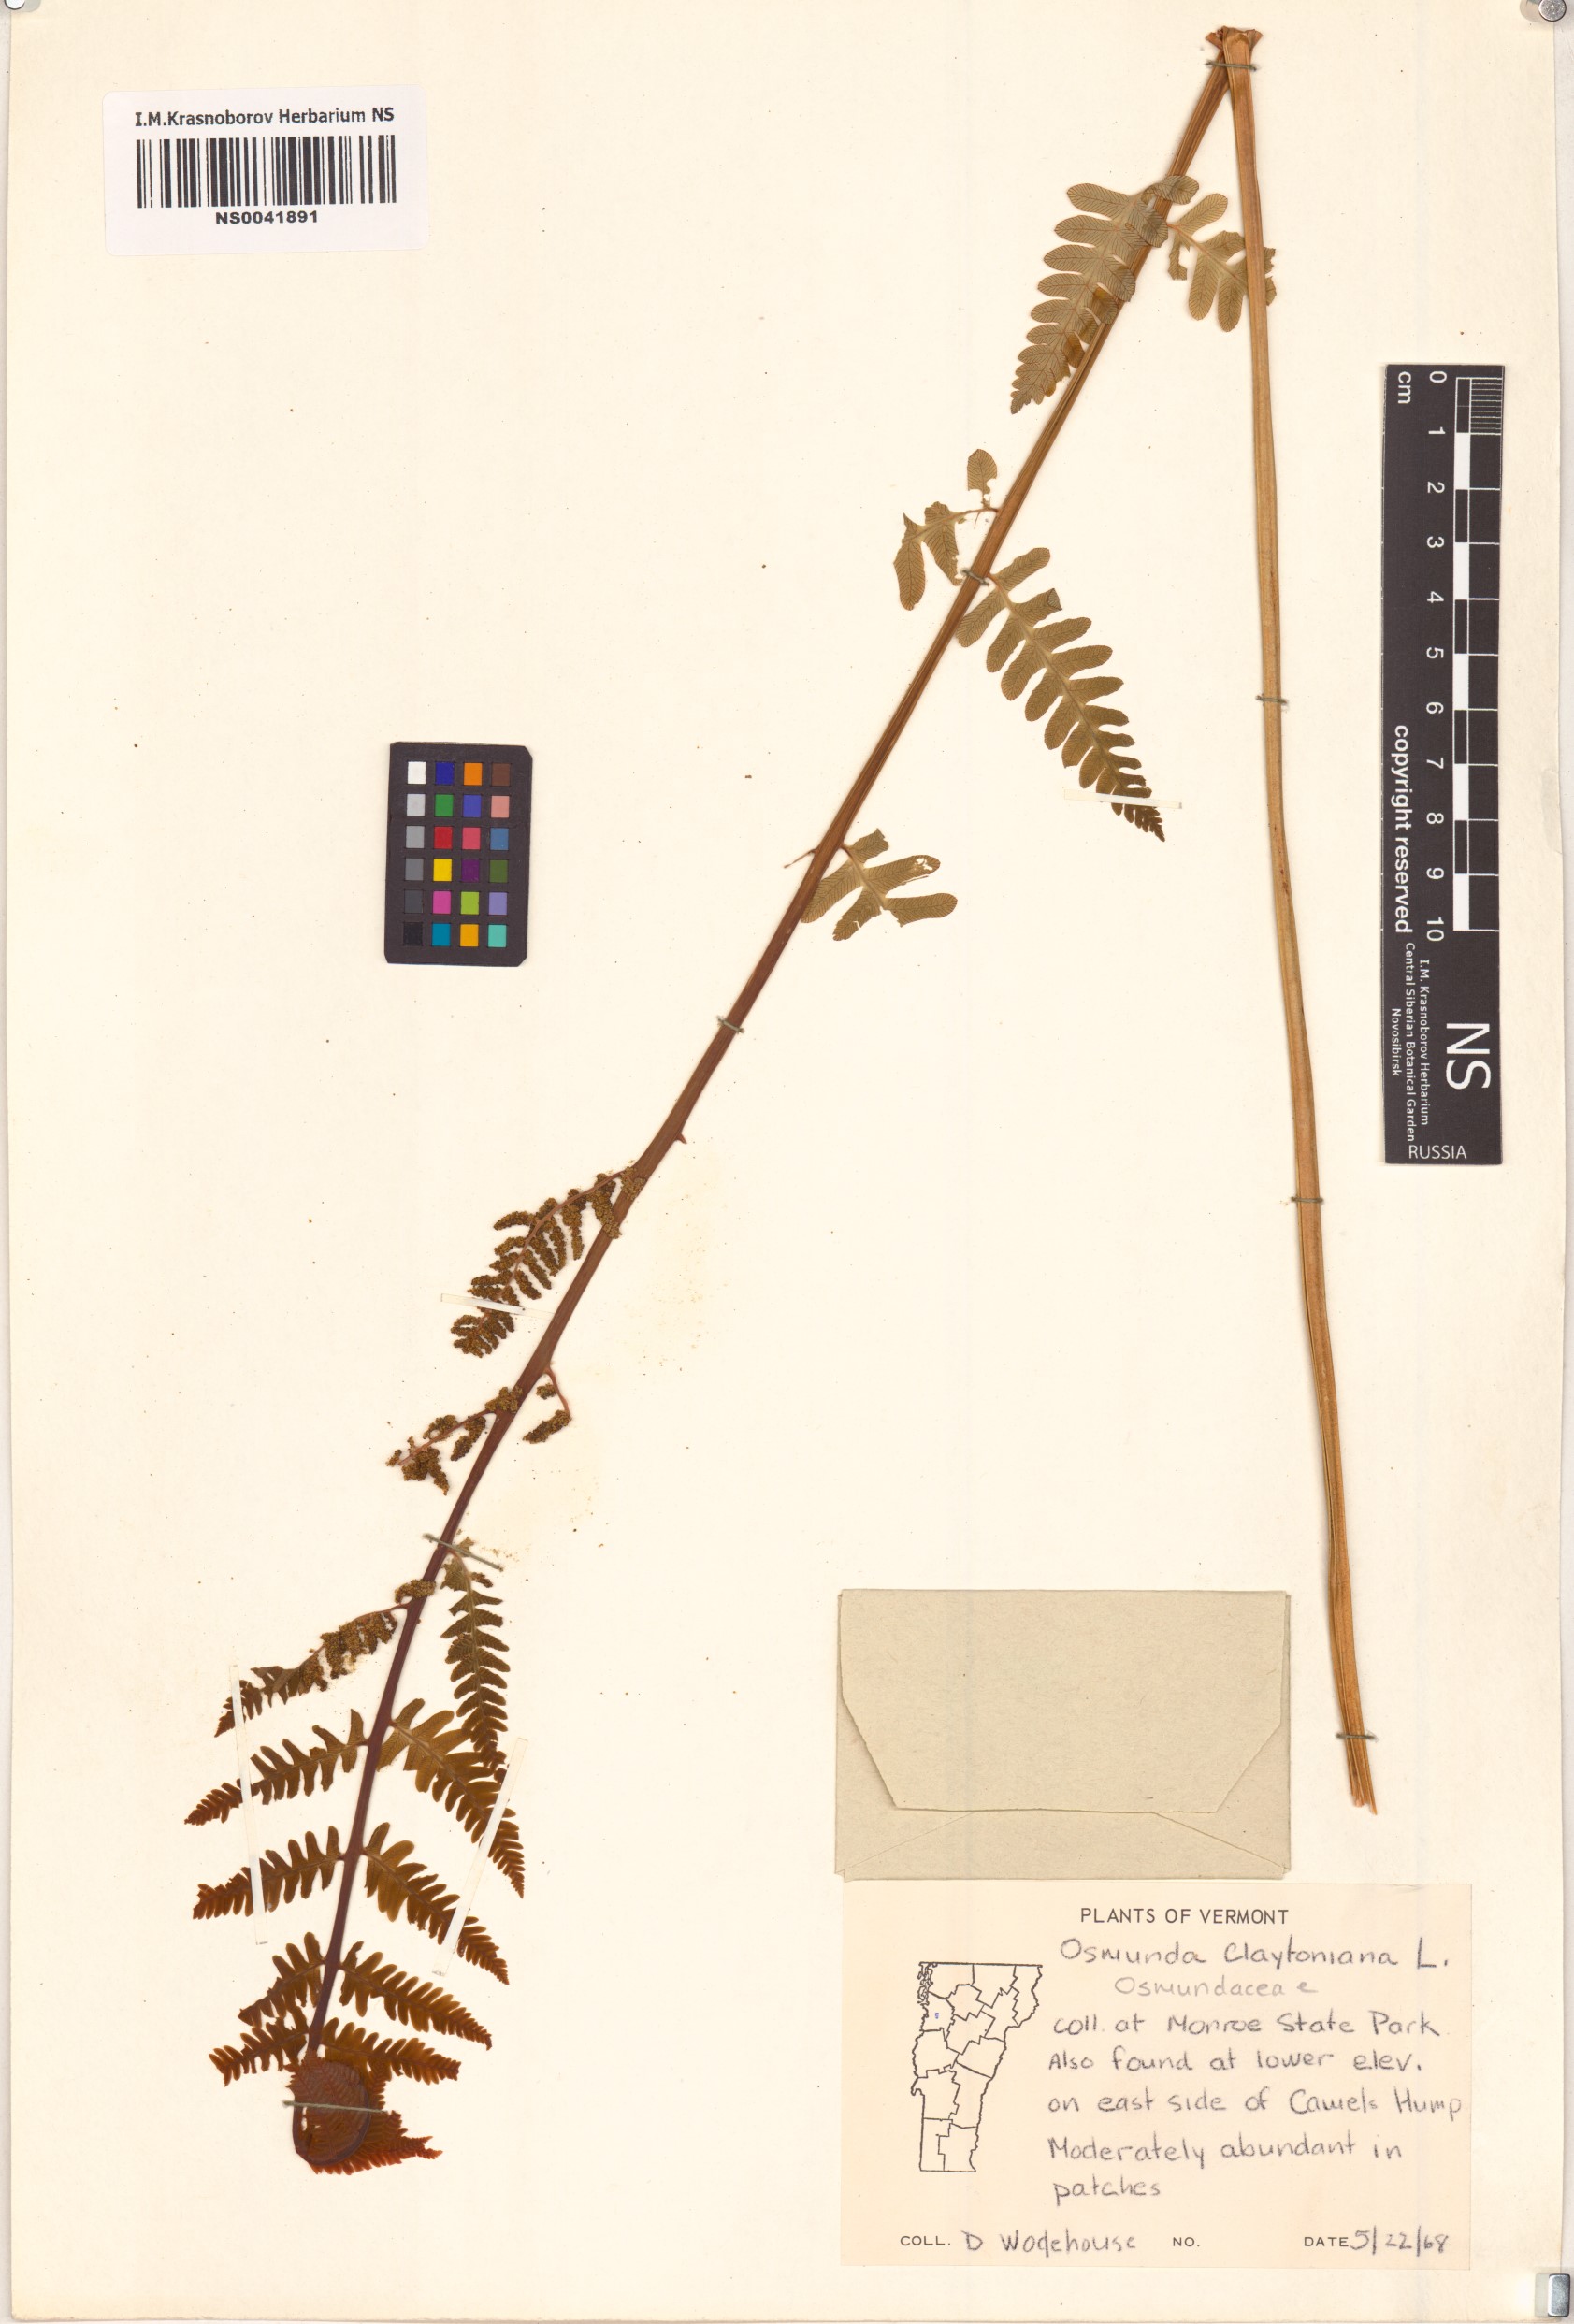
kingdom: Plantae
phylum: Tracheophyta
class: Polypodiopsida
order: Osmundales
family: Osmundaceae
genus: Claytosmunda
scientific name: Claytosmunda claytoniana
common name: Clayton's fern
